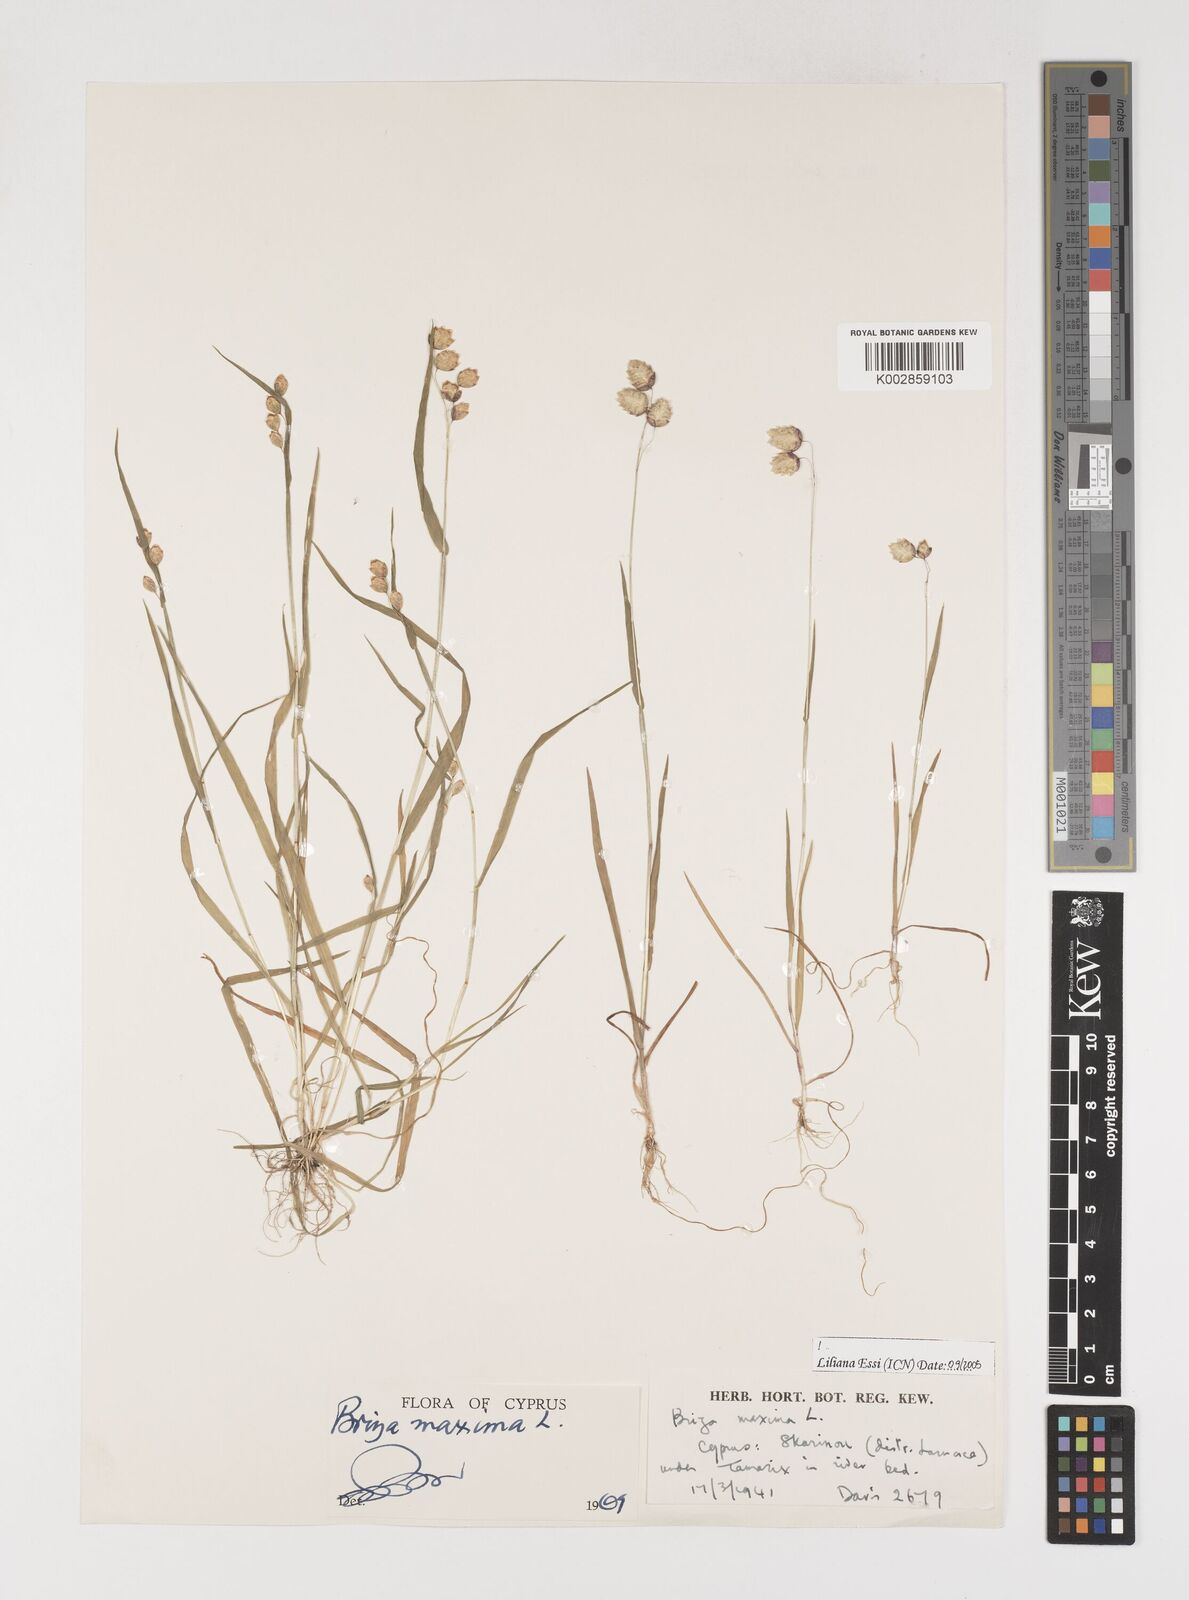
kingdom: Plantae
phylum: Tracheophyta
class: Liliopsida
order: Poales
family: Poaceae
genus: Briza
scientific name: Briza maxima
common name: Big quakinggrass
